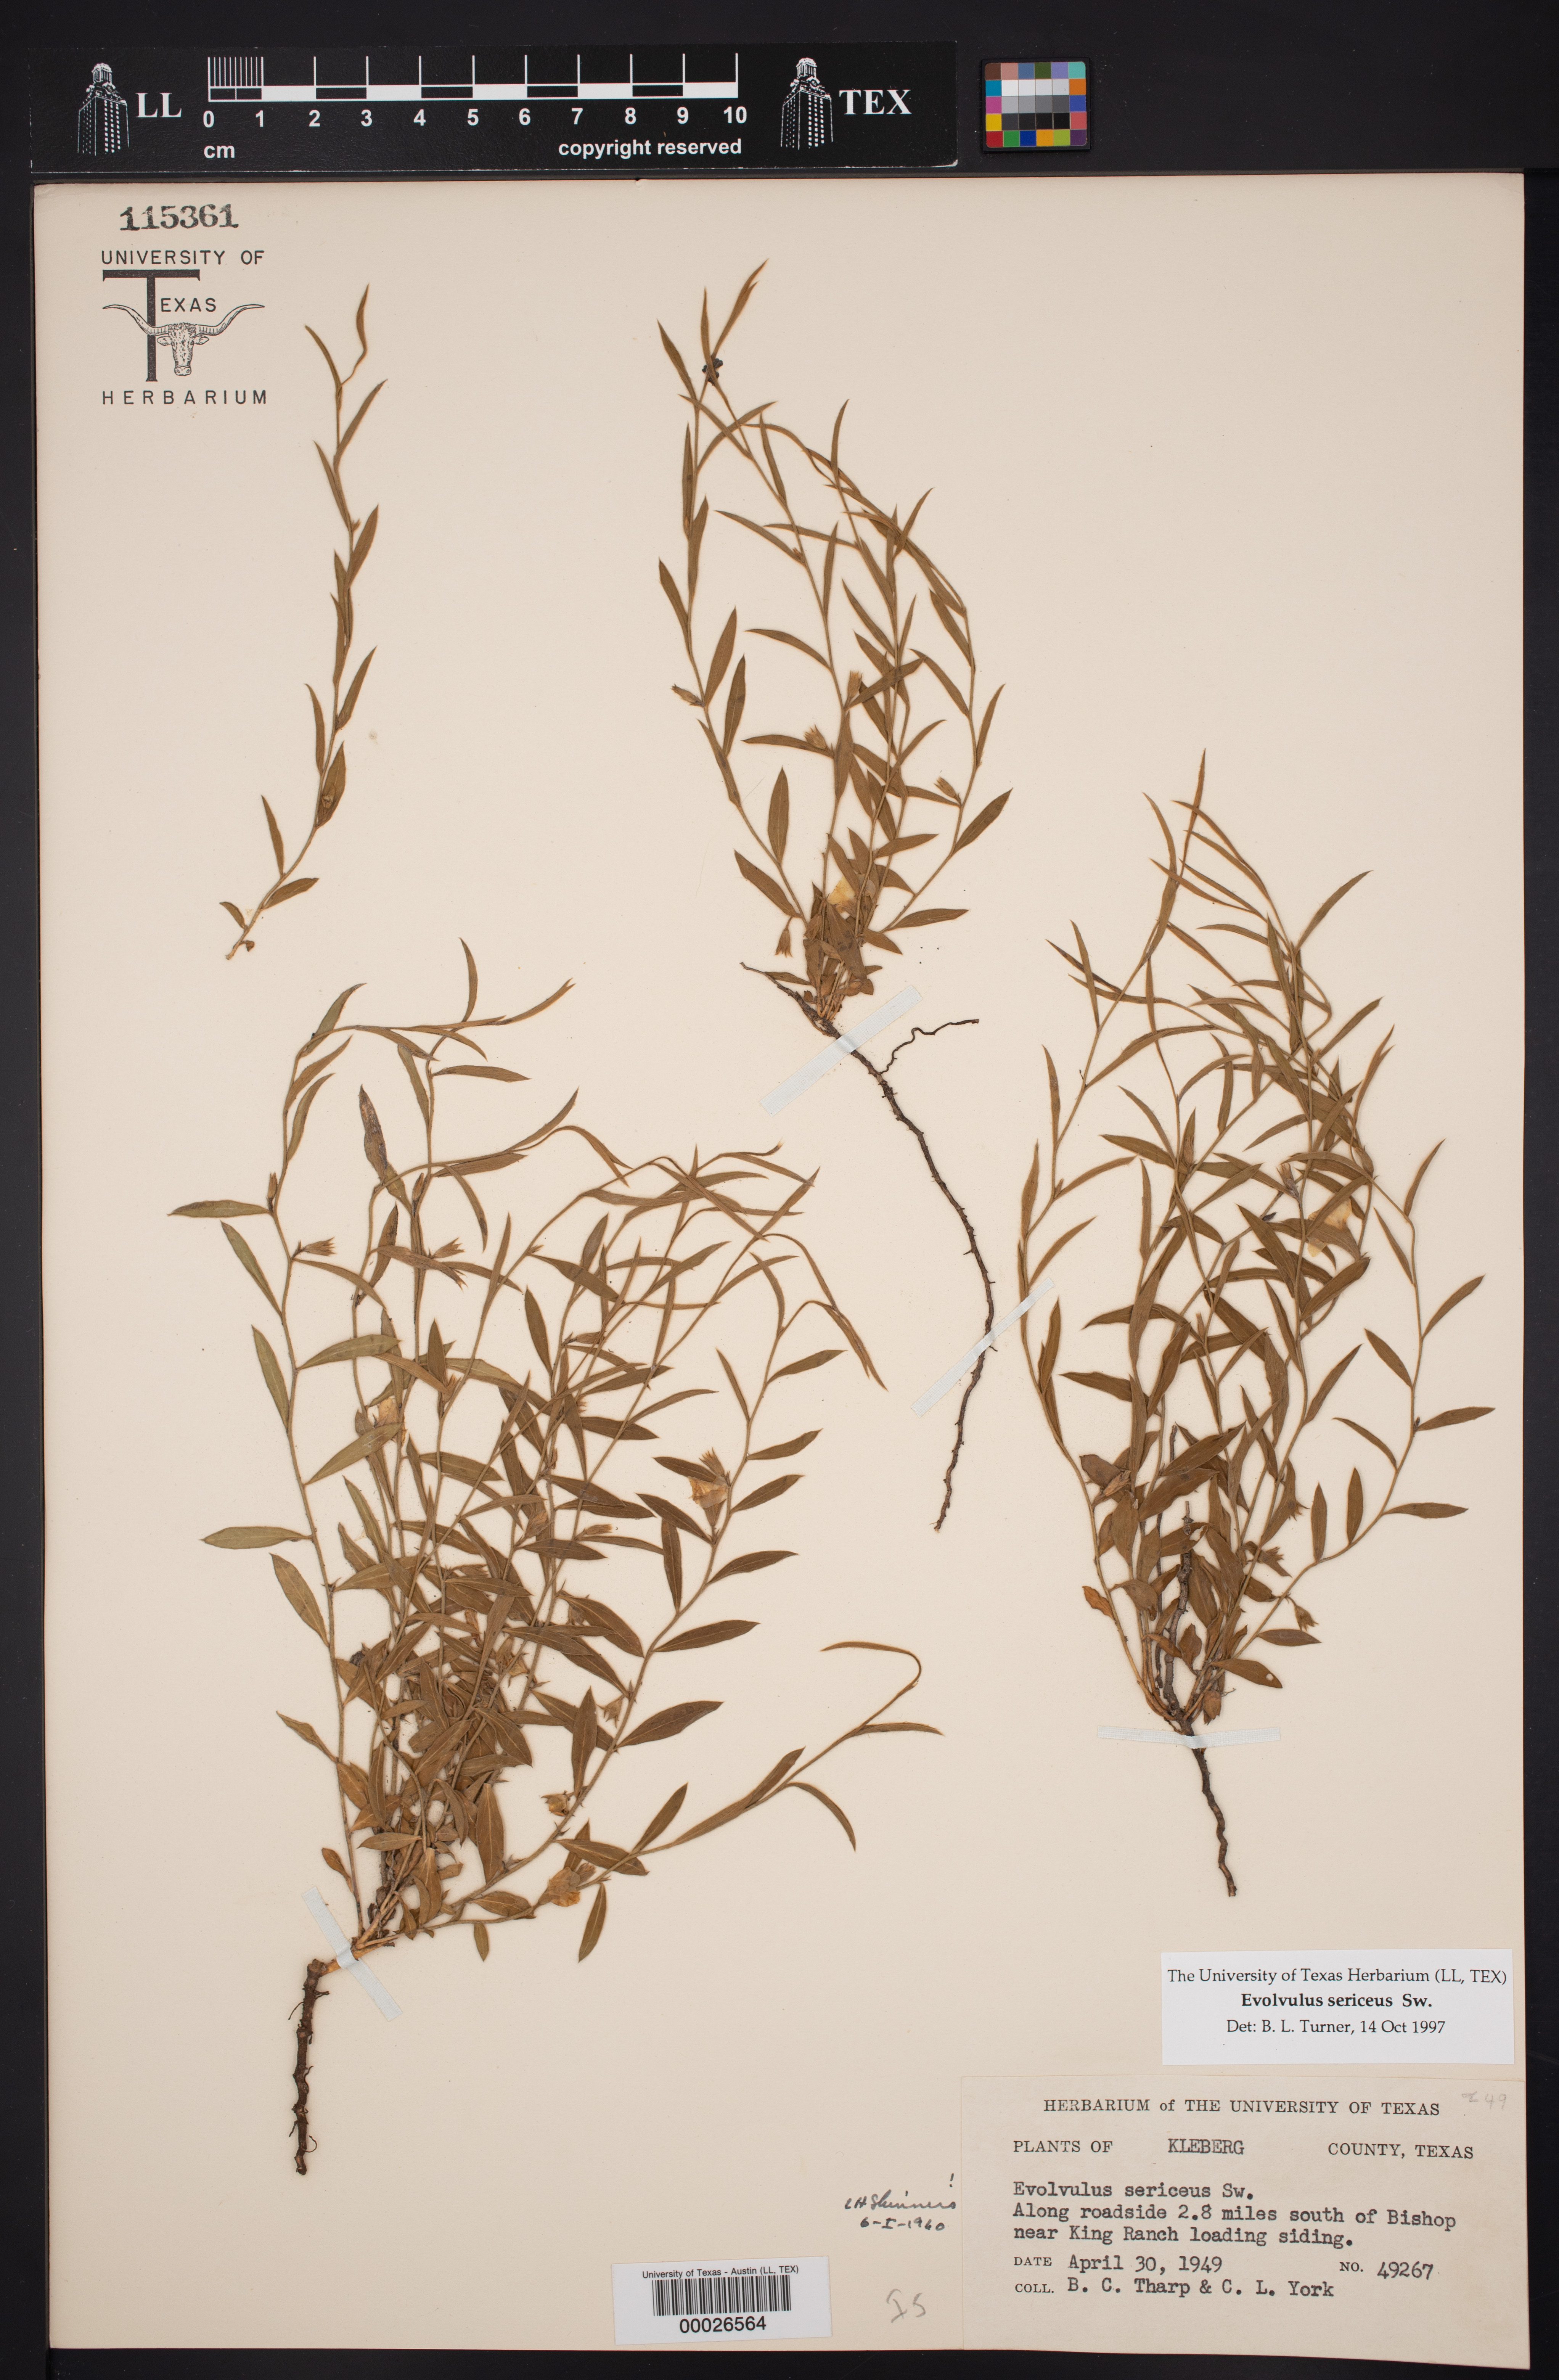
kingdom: Plantae
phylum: Tracheophyta
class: Magnoliopsida
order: Solanales
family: Convolvulaceae
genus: Evolvulus
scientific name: Evolvulus sericeus
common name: Blue dots
